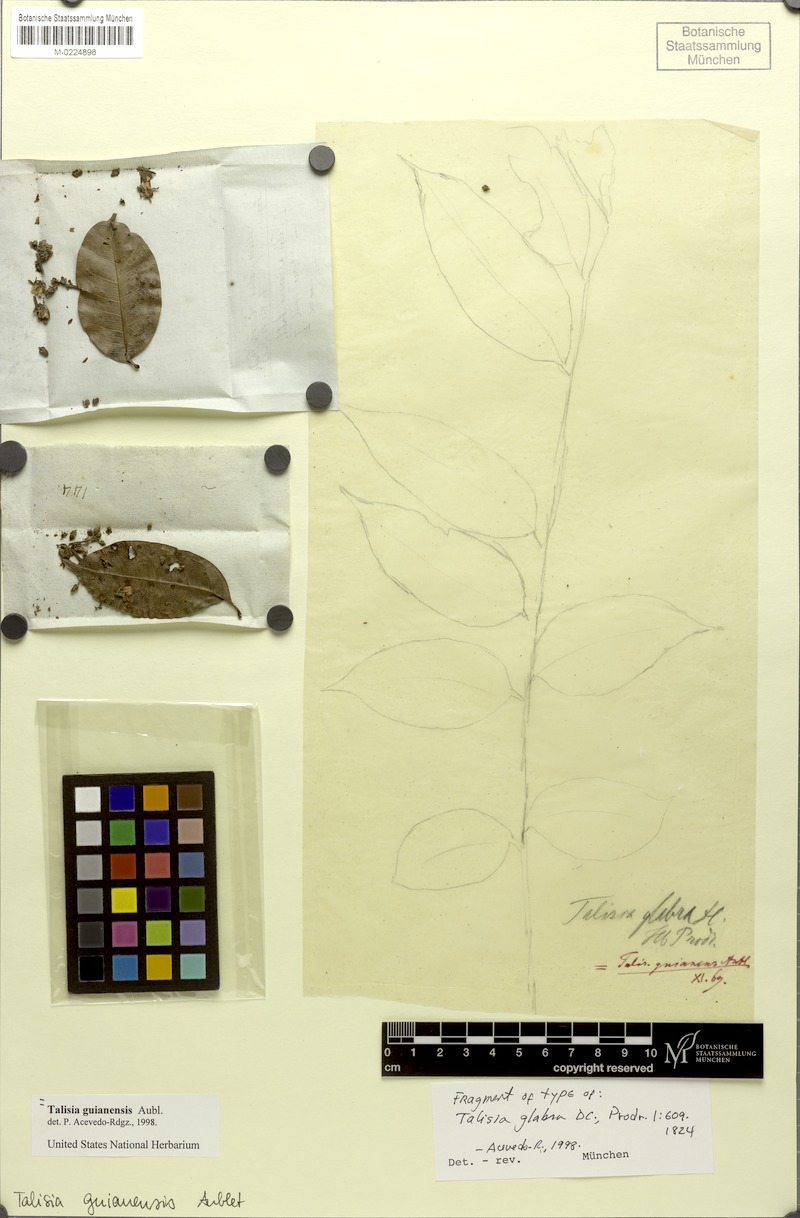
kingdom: Plantae
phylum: Tracheophyta
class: Magnoliopsida
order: Sapindales
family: Sapindaceae
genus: Talisia
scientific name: Talisia guianensis
